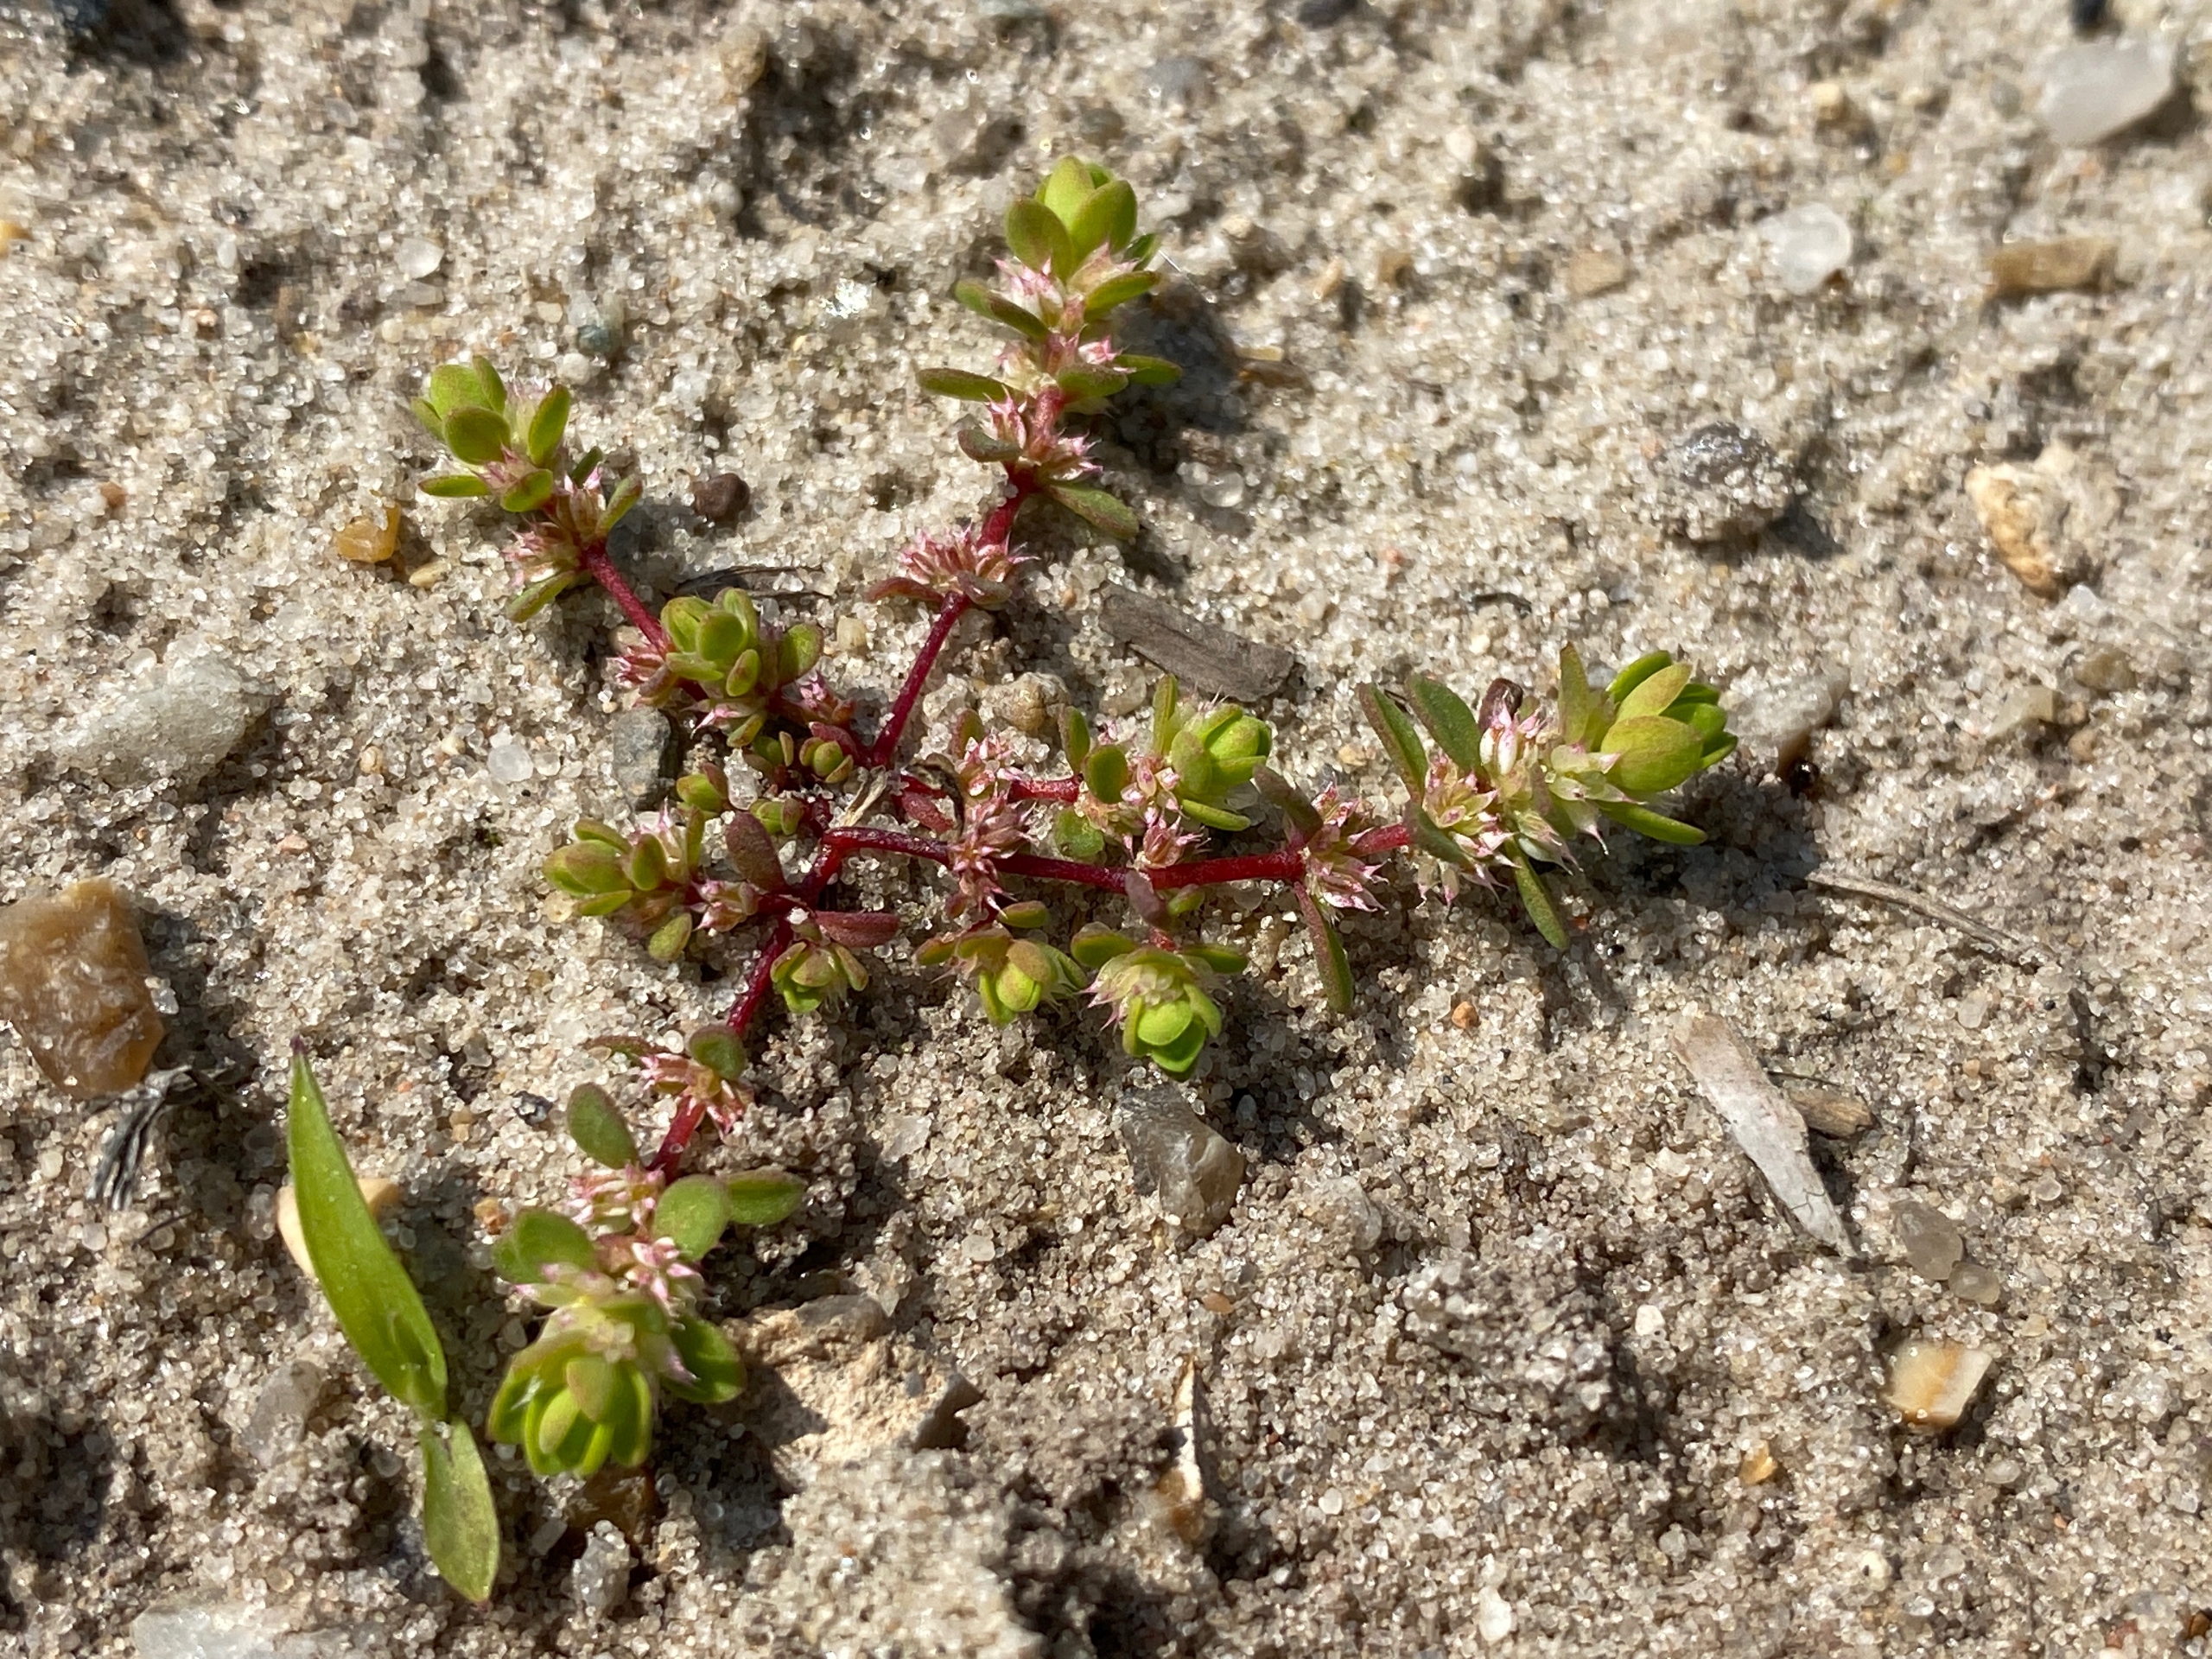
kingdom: Plantae
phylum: Tracheophyta
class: Magnoliopsida
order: Caryophyllales
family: Caryophyllaceae
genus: Illecebrum
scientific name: Illecebrum verticillatum
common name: Bruskbæger
